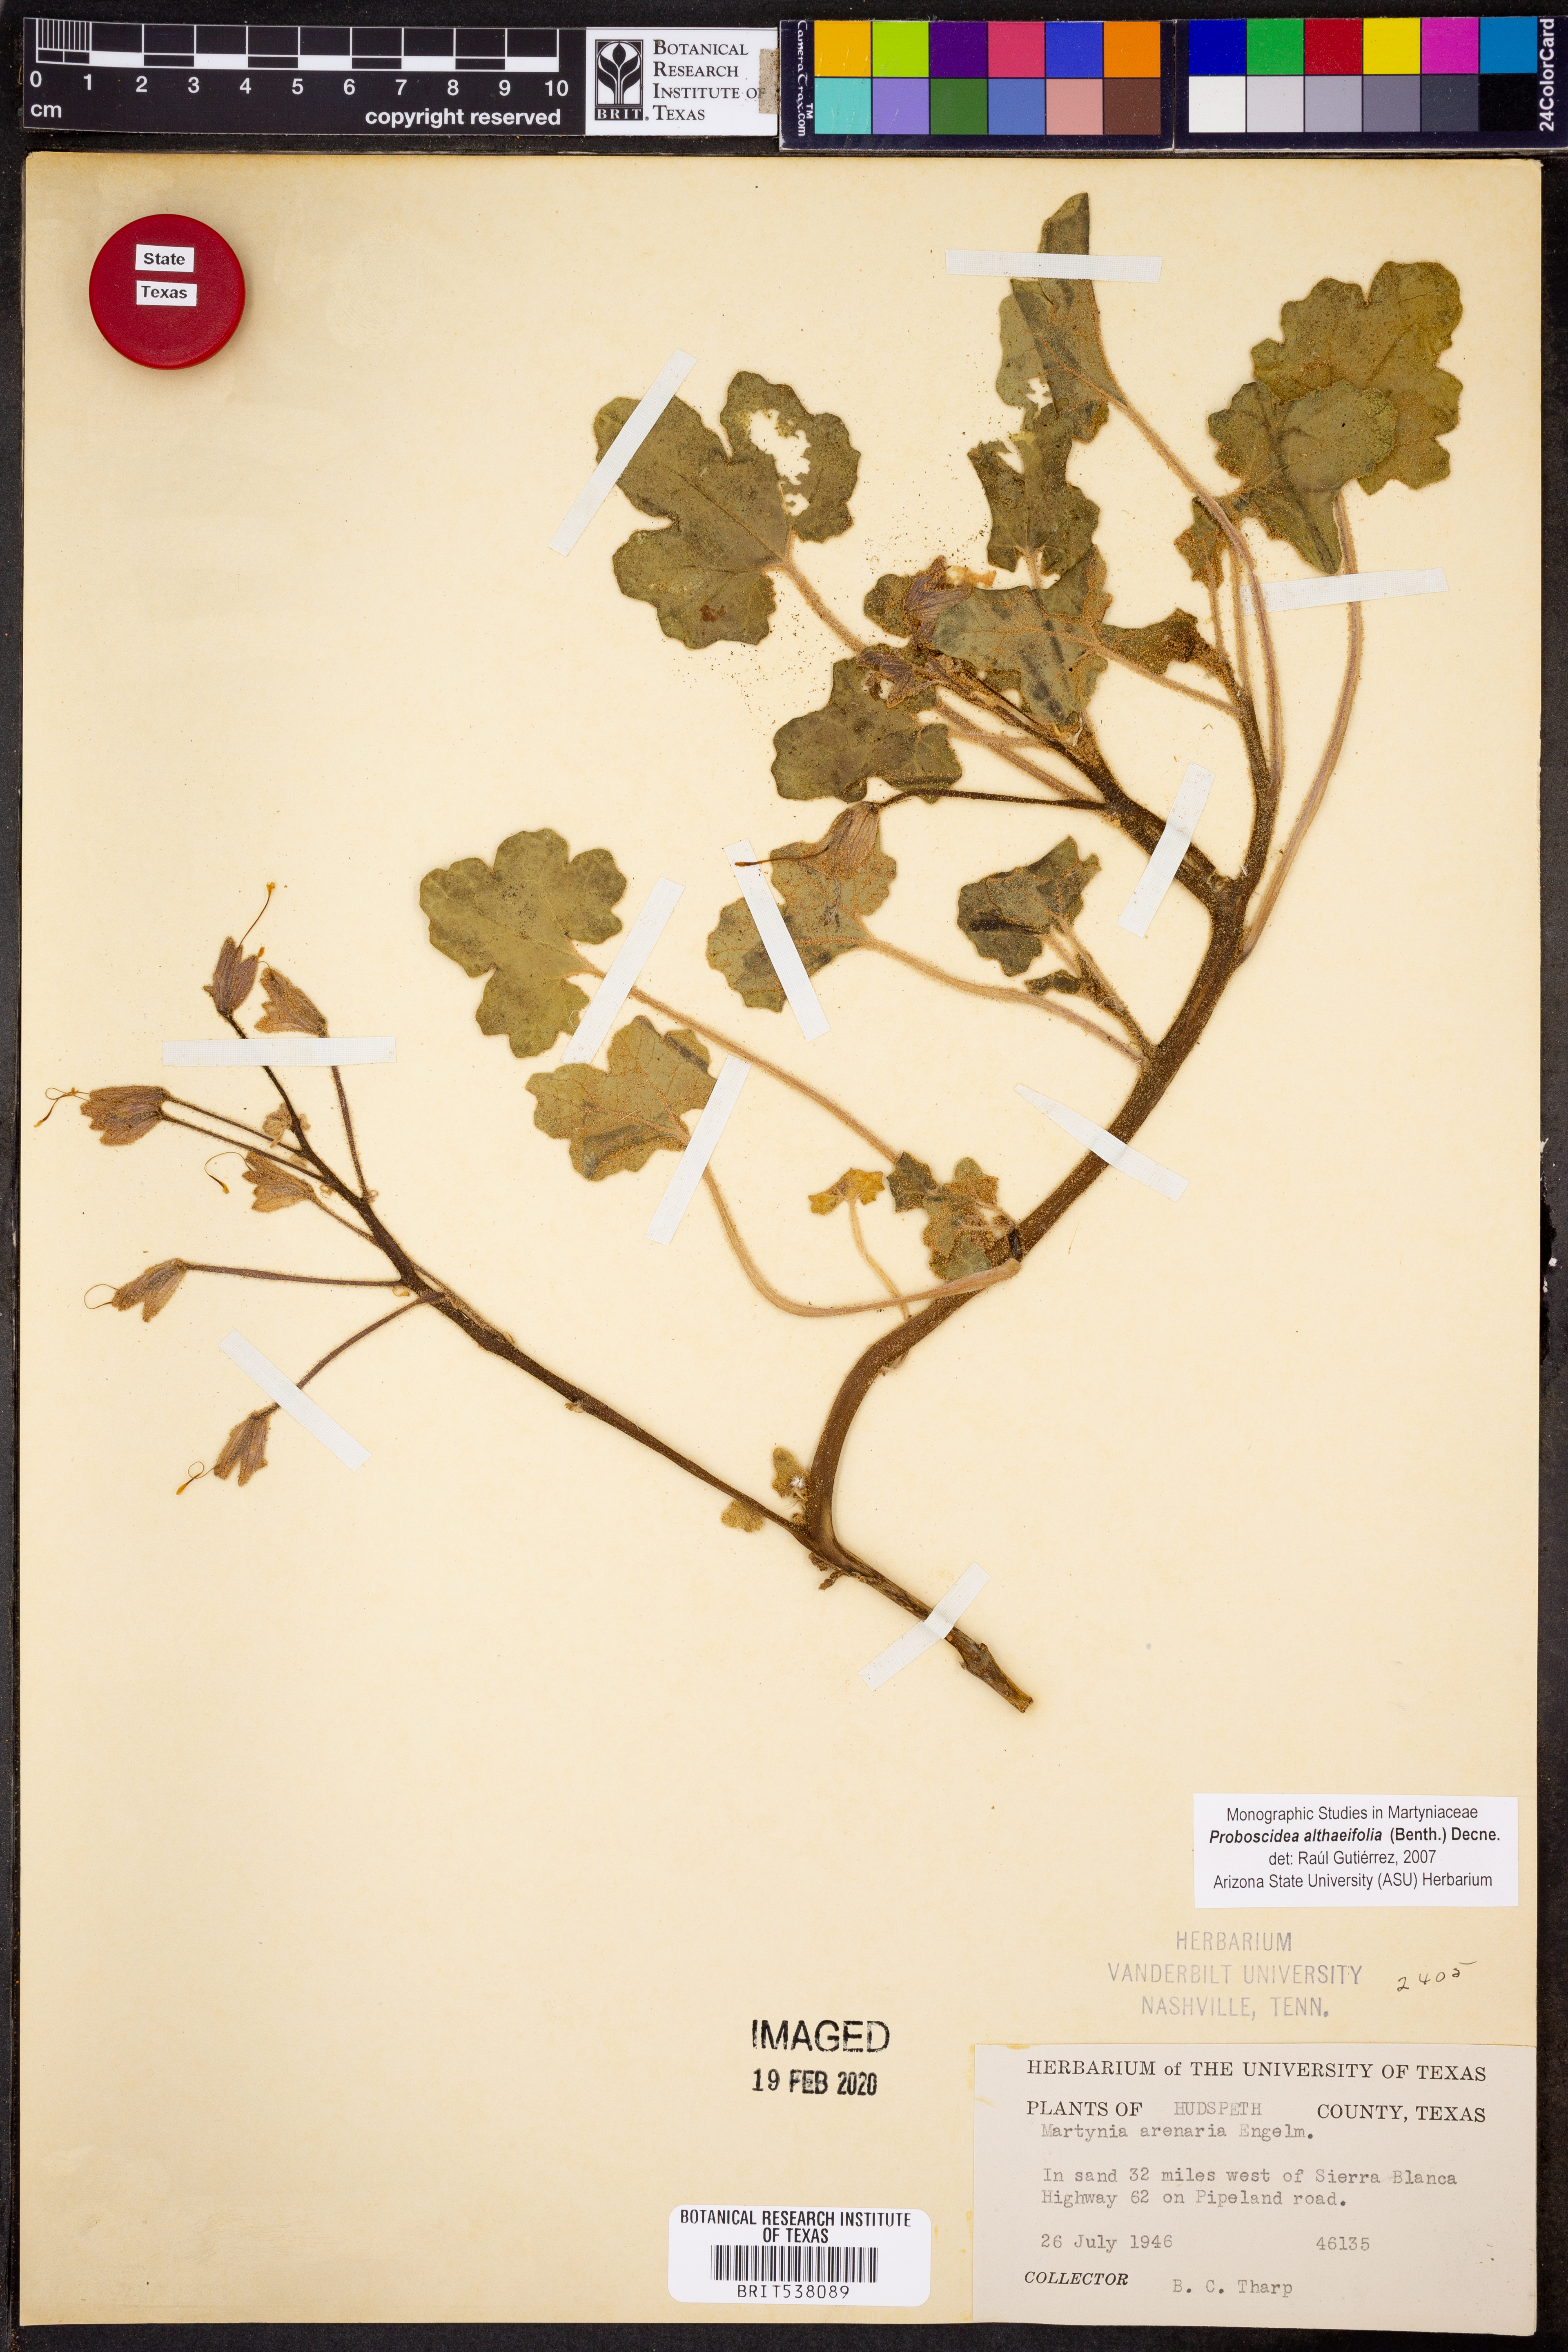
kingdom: Plantae
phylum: Tracheophyta
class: Magnoliopsida
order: Lamiales
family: Martyniaceae
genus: Proboscidea
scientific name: Proboscidea althaeifolia
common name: Desert unicorn-plant
